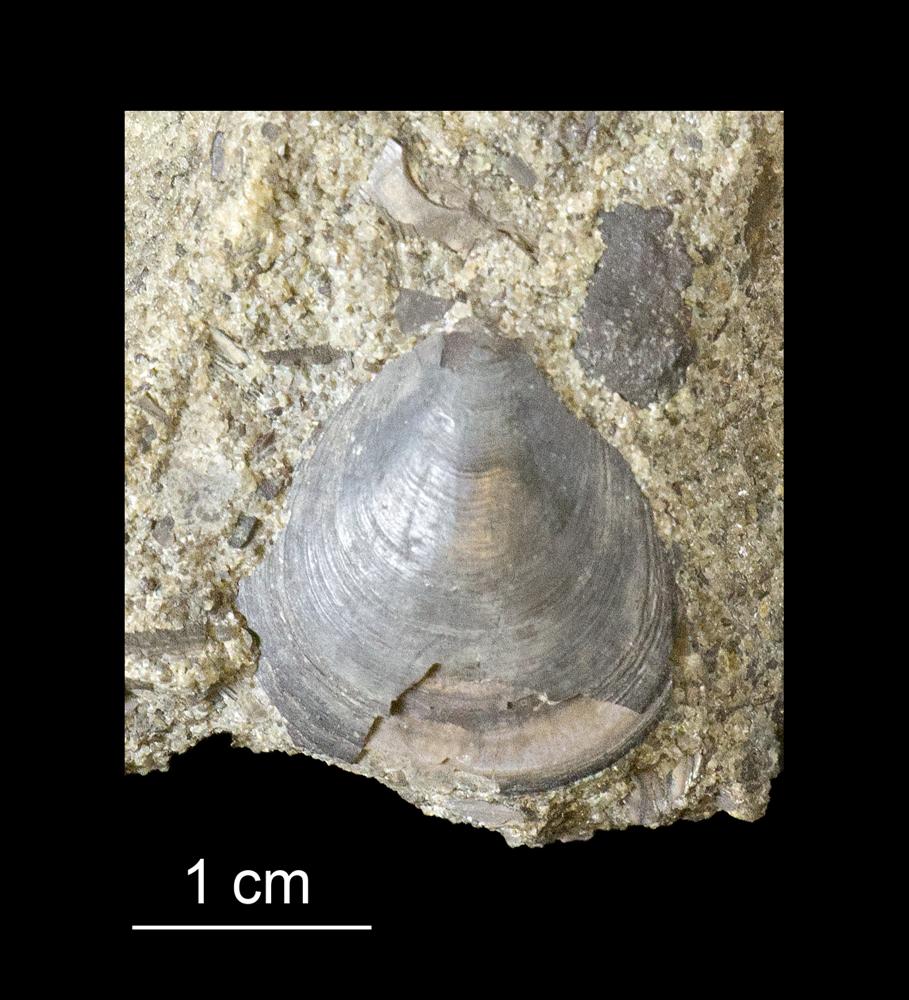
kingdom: Animalia
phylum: Brachiopoda
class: Lingulata
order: Lingulida
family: Zhanatellidae
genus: Thysanotos
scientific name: Thysanotos
